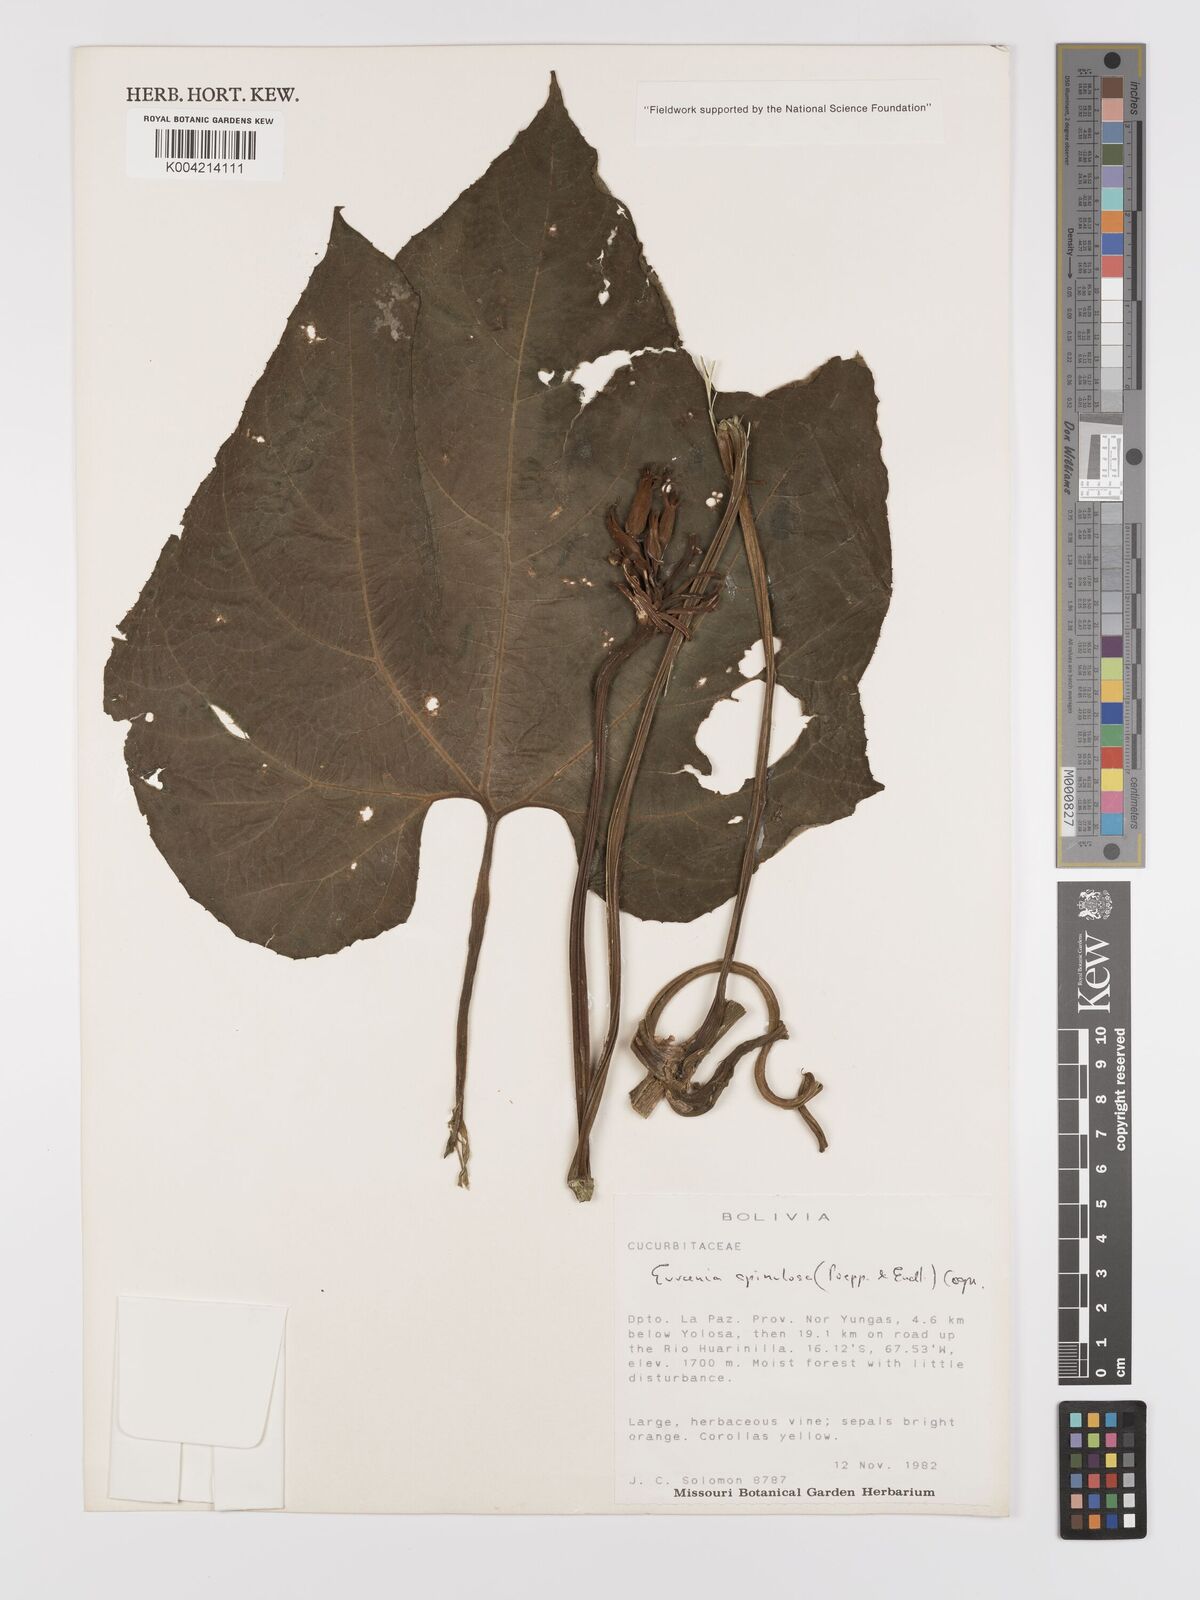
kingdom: Plantae
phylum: Tracheophyta
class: Magnoliopsida
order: Cucurbitales
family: Cucurbitaceae
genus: Gurania
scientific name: Gurania lobata
